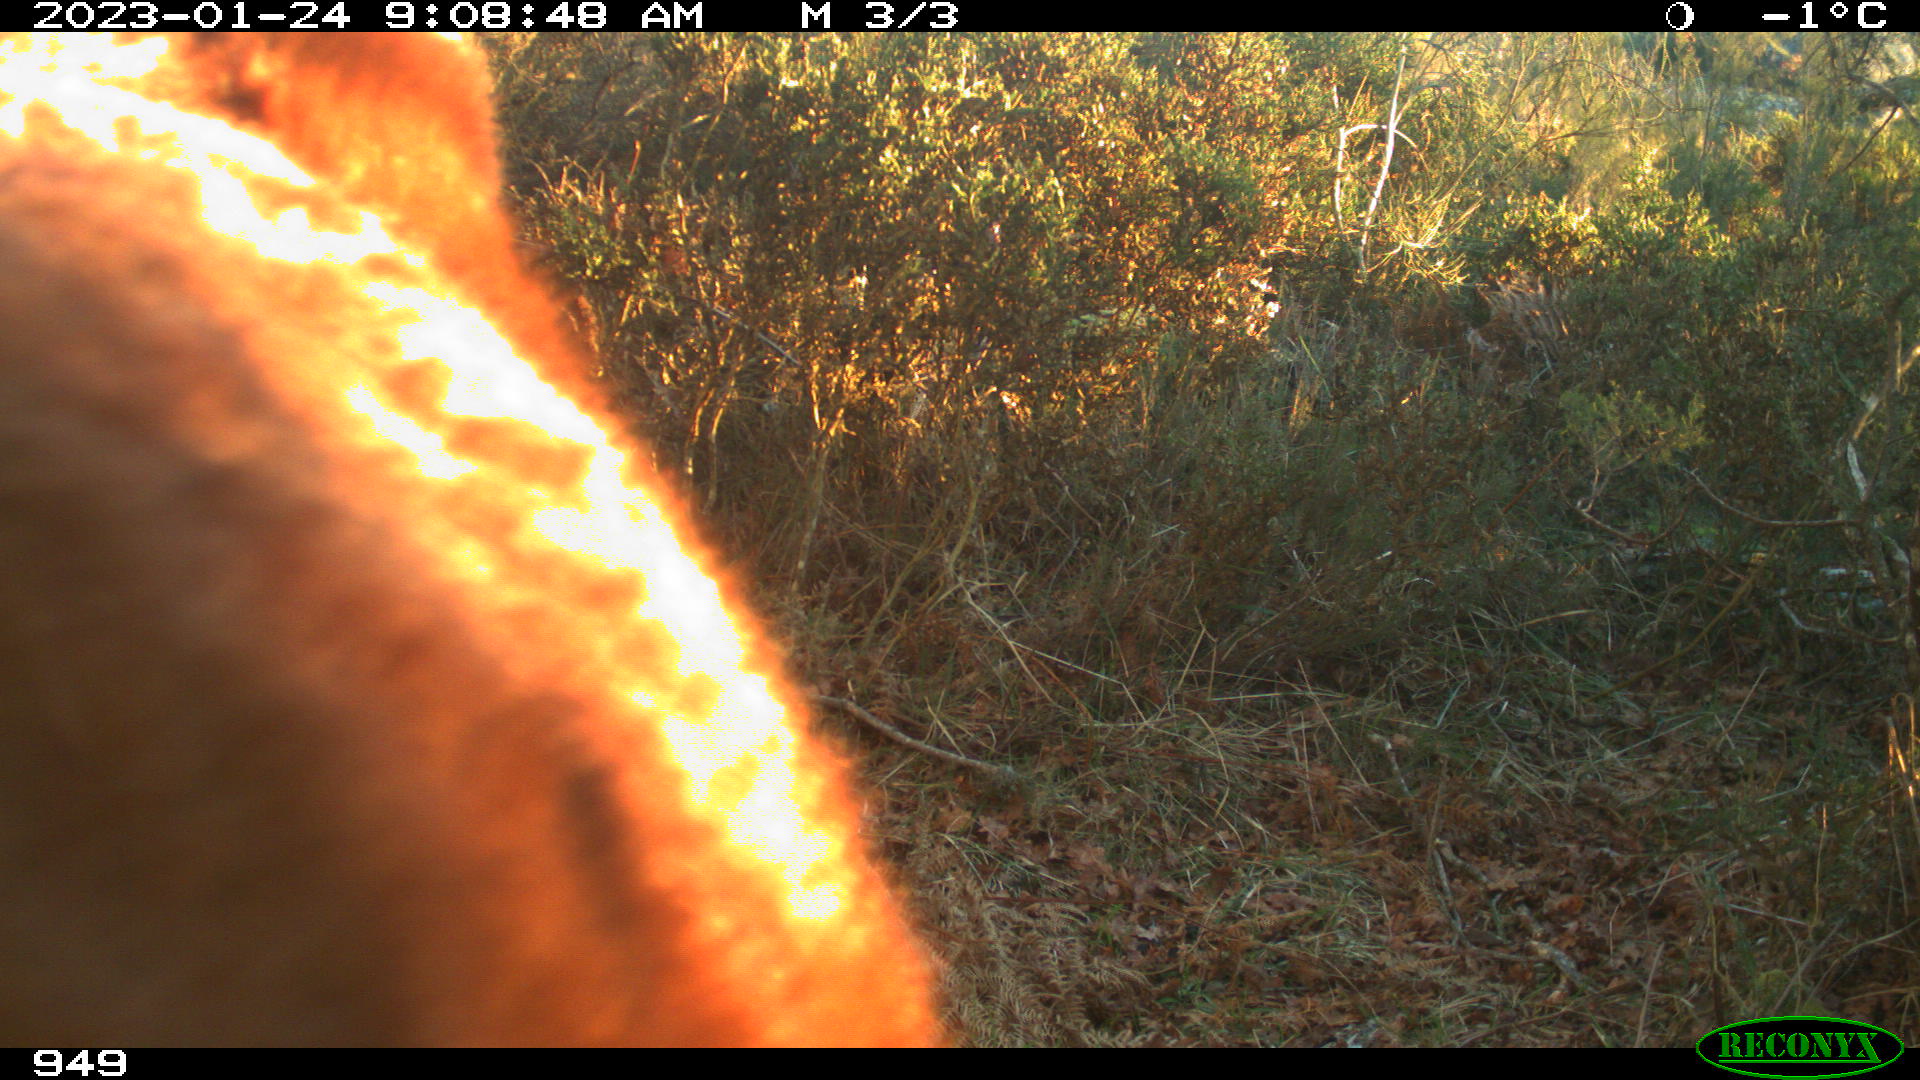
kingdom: Animalia
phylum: Chordata
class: Mammalia
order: Perissodactyla
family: Equidae
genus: Equus
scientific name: Equus caballus
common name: Horse
